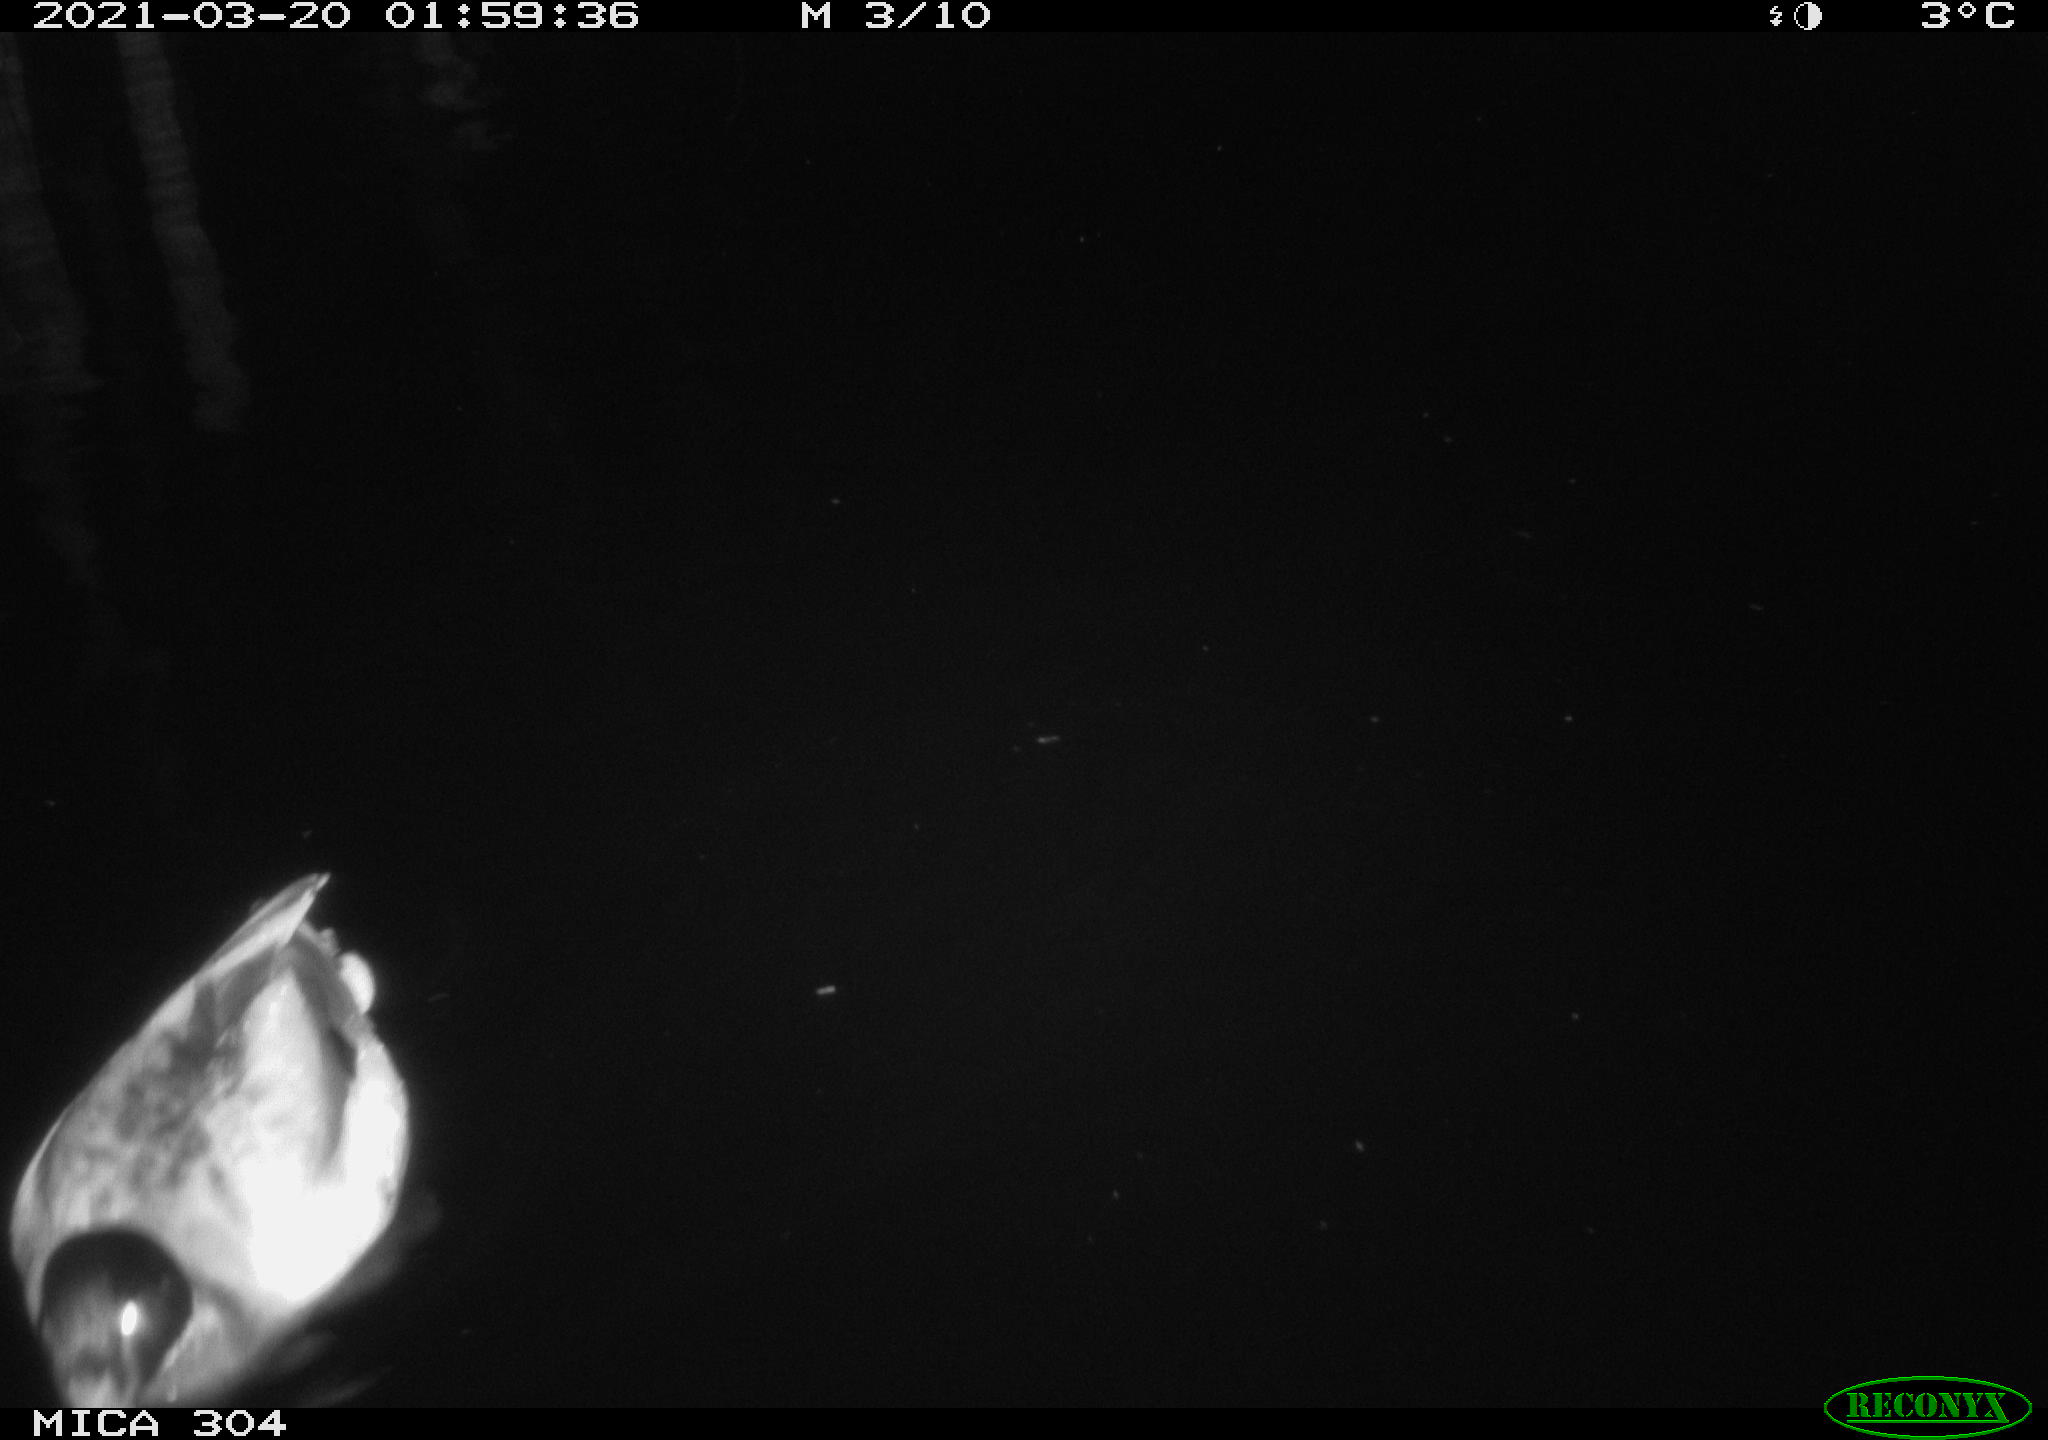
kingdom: Animalia
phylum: Chordata
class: Aves
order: Anseriformes
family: Anatidae
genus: Anas
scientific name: Anas platyrhynchos
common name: Mallard
